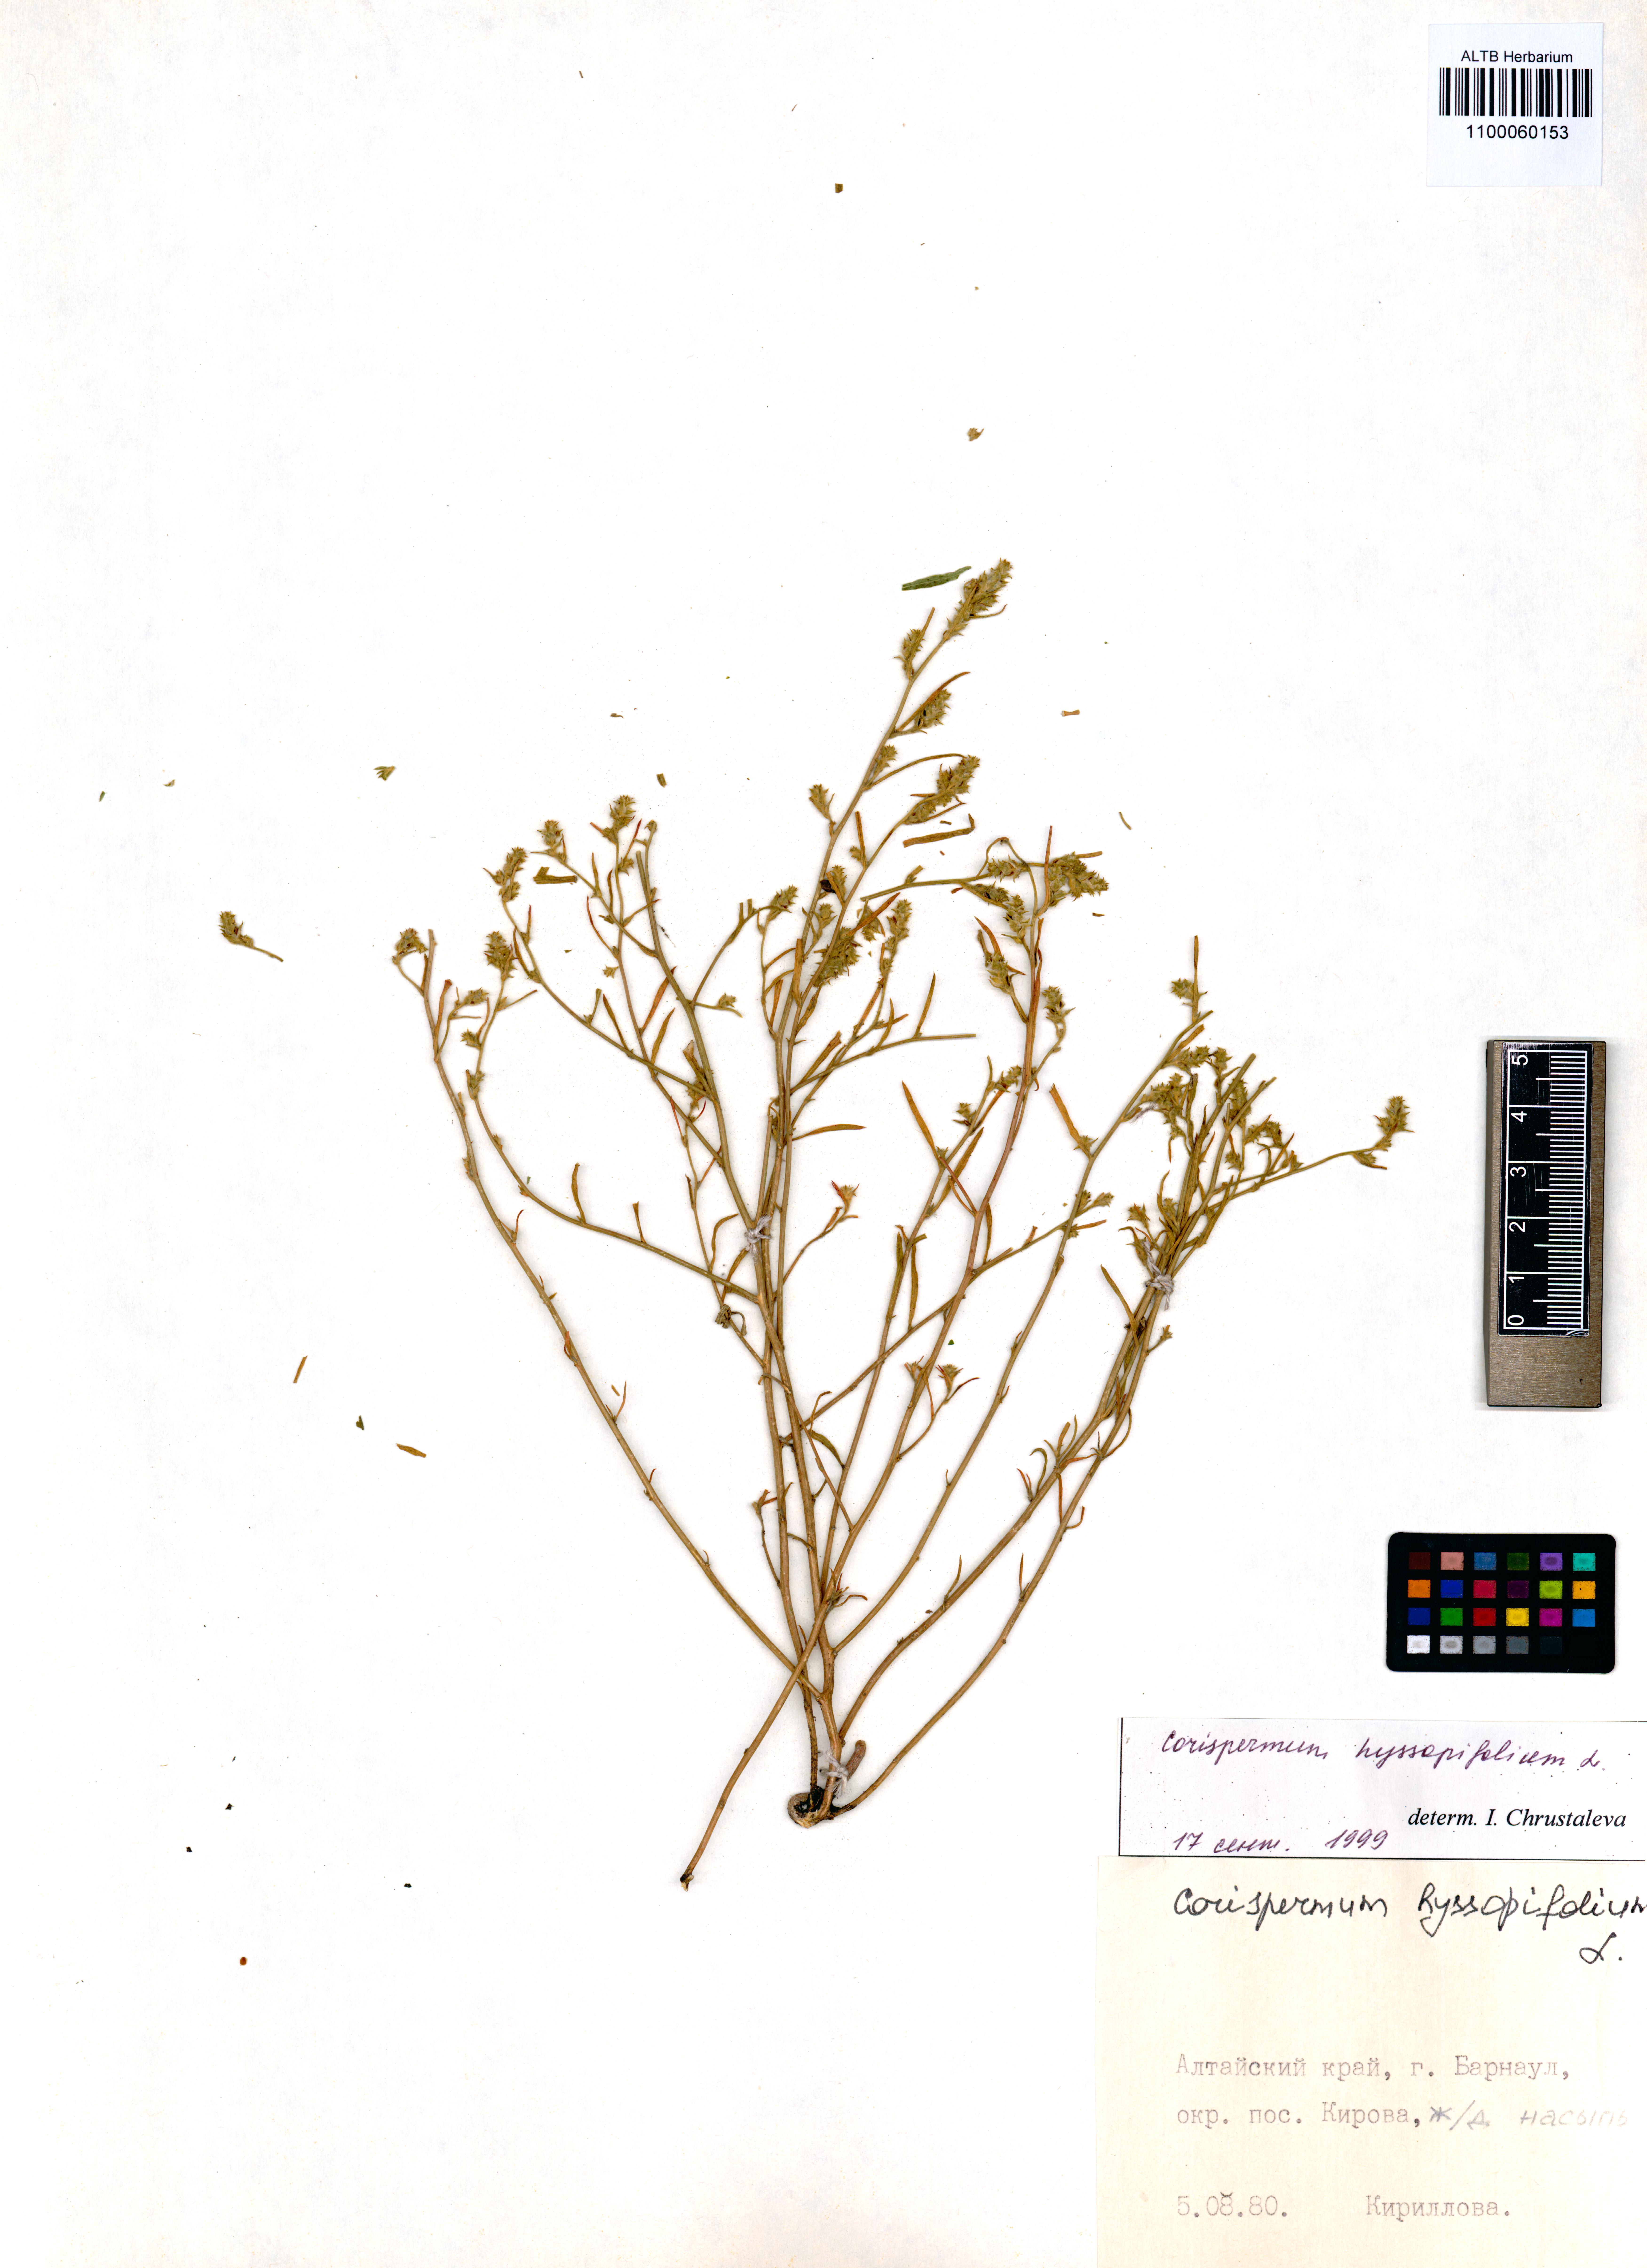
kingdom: Plantae
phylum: Tracheophyta
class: Magnoliopsida
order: Caryophyllales
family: Amaranthaceae
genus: Corispermum
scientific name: Corispermum hyssopifolium
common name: Bugseed
